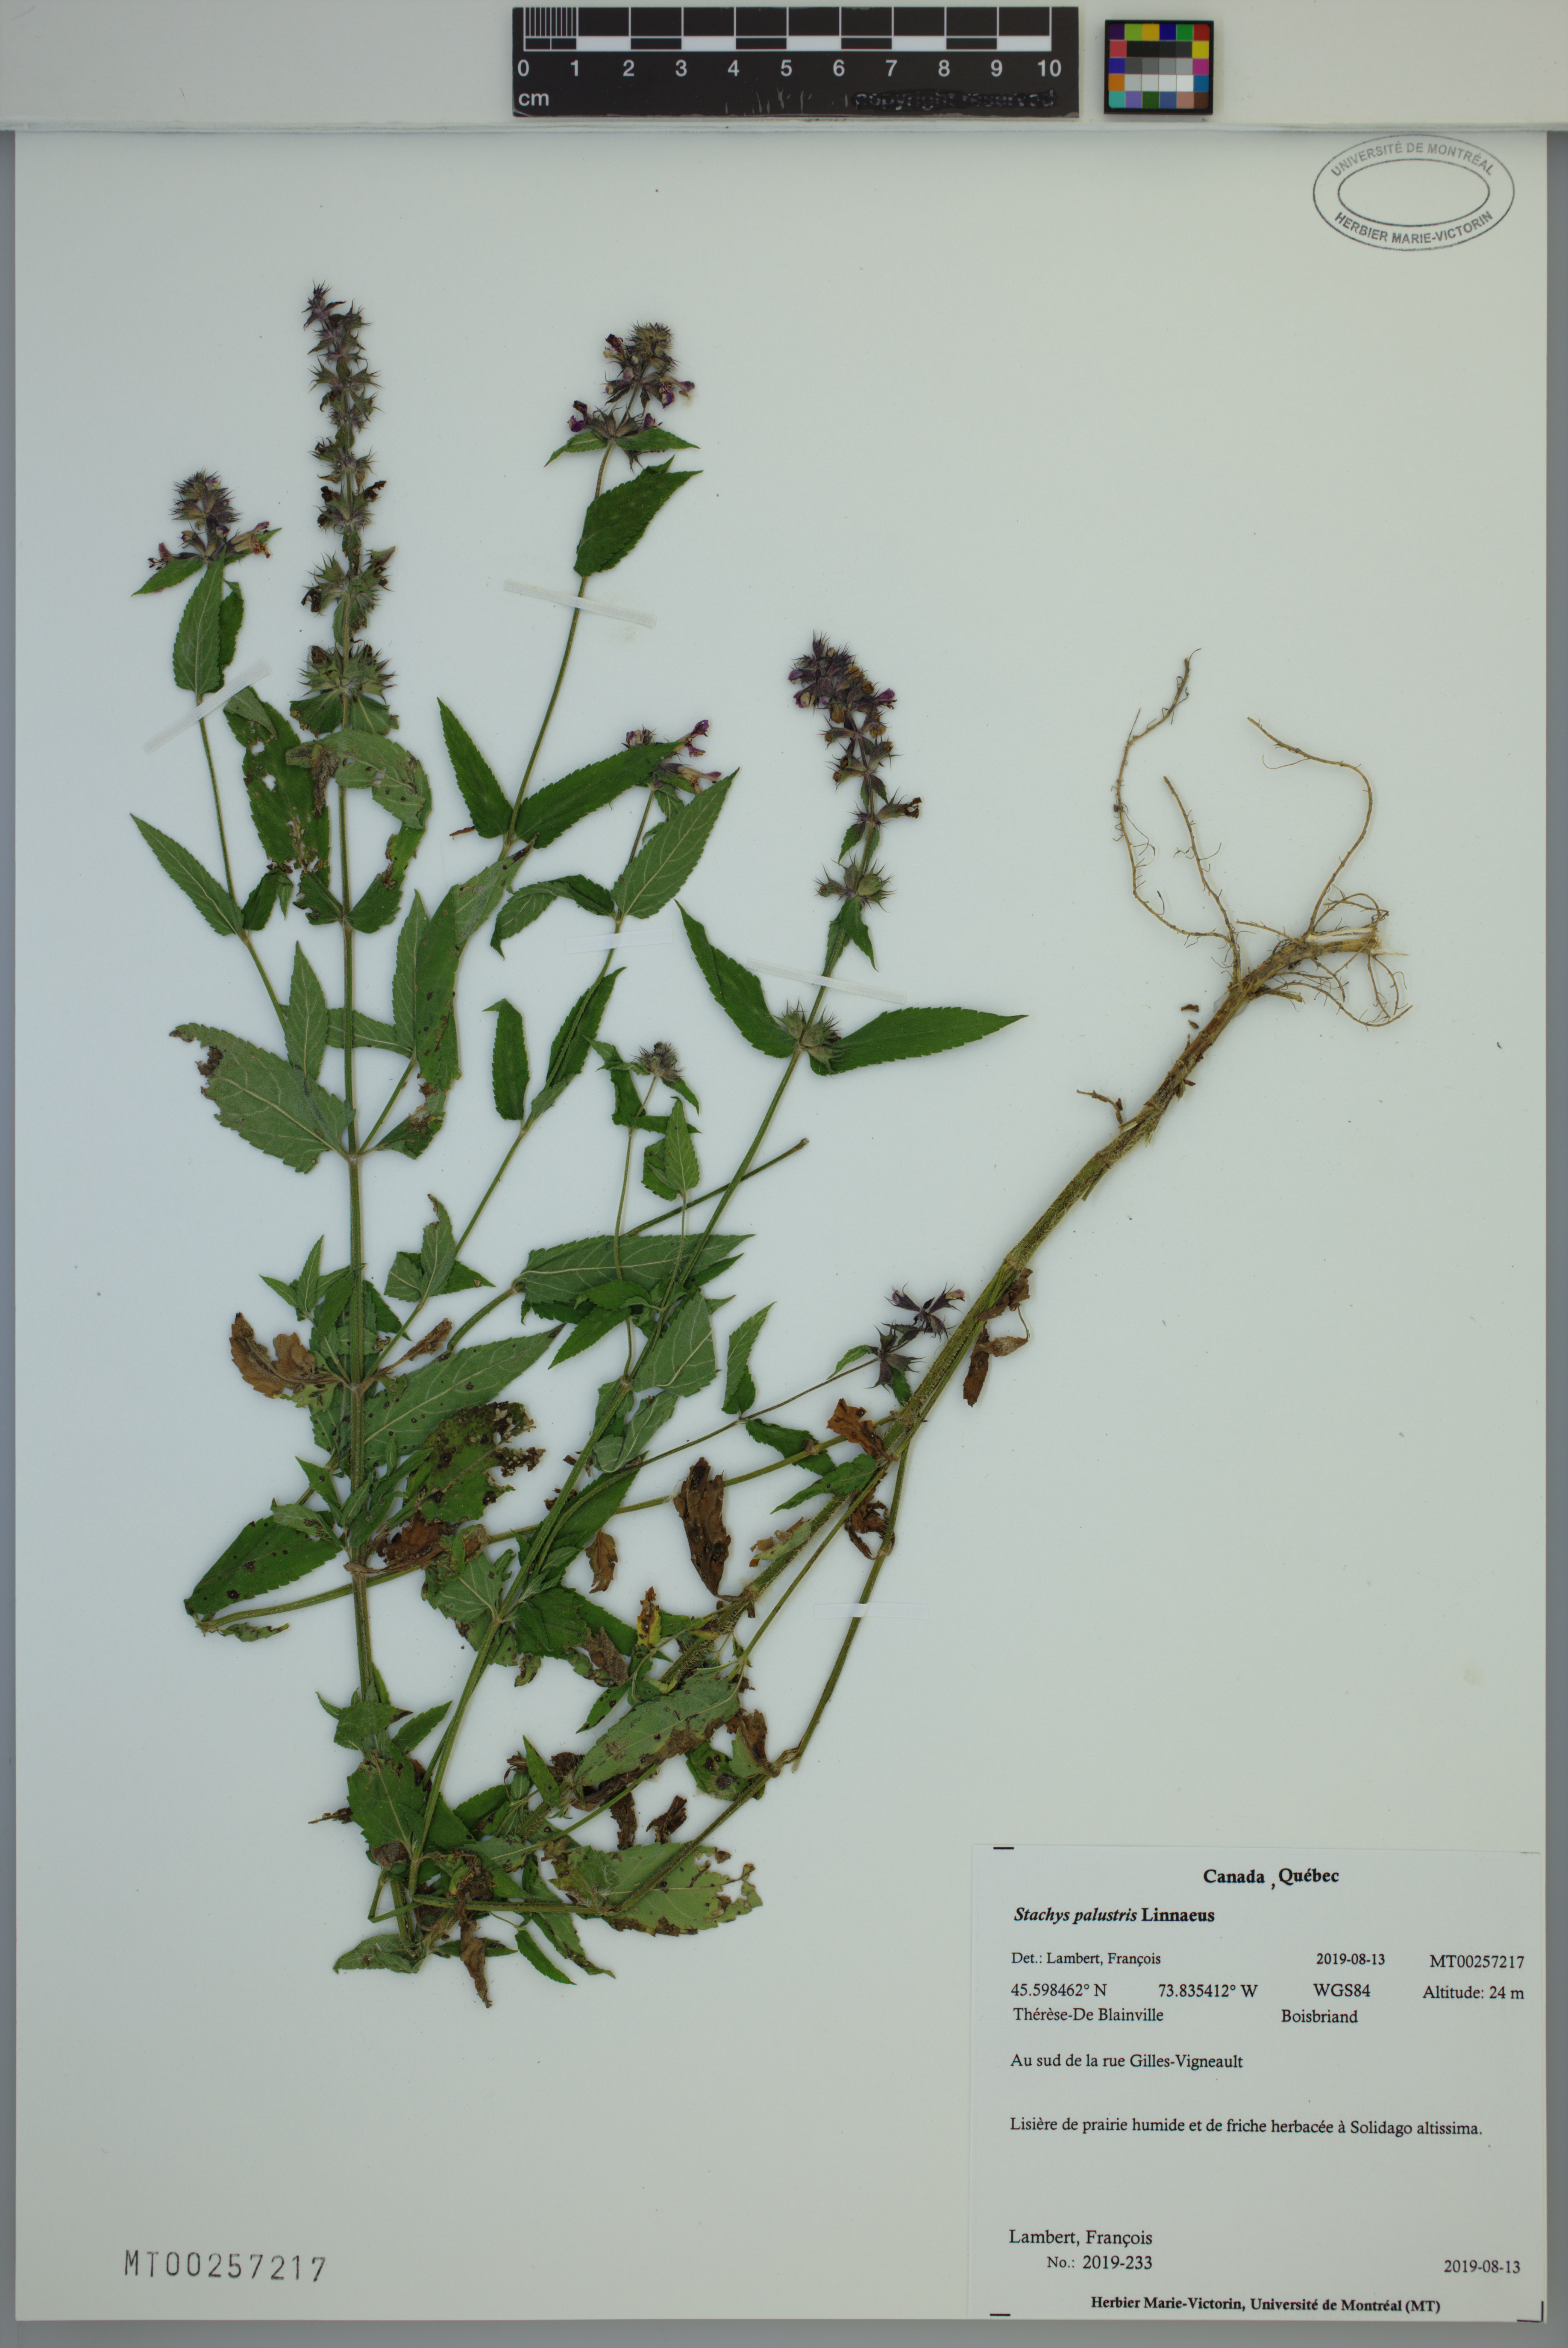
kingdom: Plantae
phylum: Tracheophyta
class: Magnoliopsida
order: Lamiales
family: Lamiaceae
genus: Stachys
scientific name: Stachys palustris
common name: Marsh woundwort
